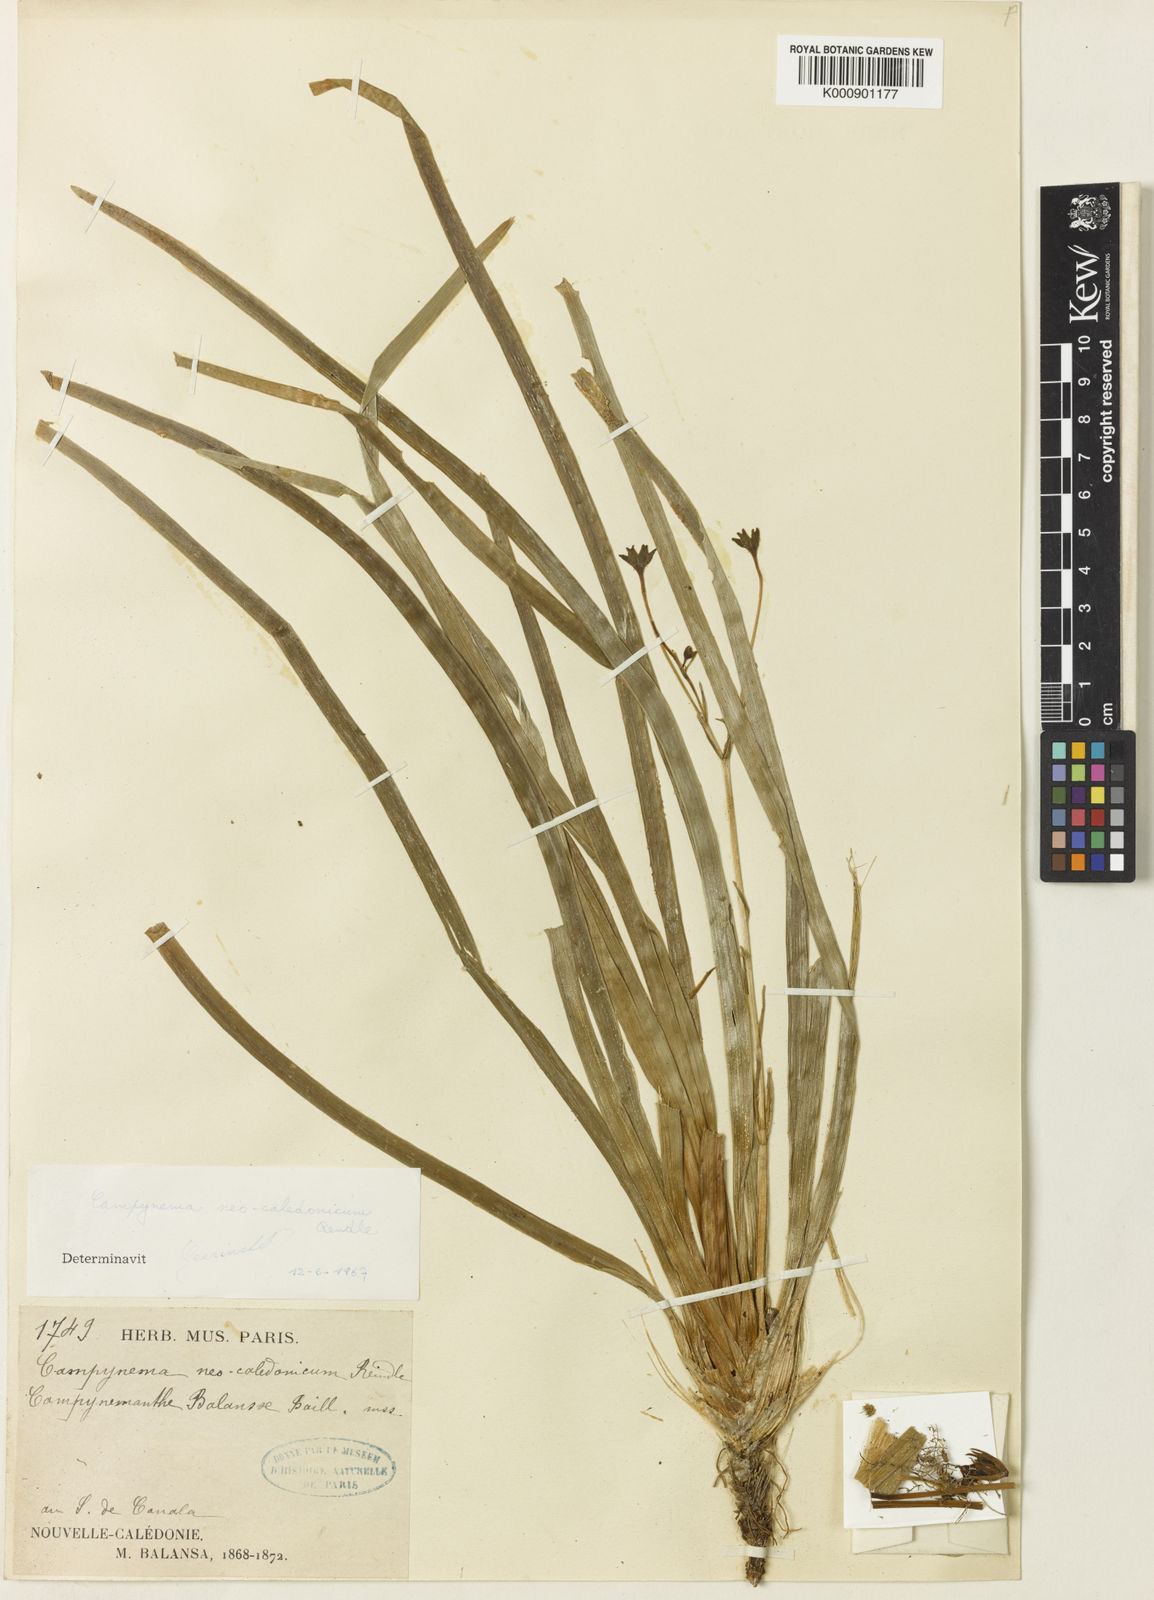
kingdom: Plantae
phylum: Tracheophyta
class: Liliopsida
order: Liliales
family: Campynemataceae
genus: Campynemanthe
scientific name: Campynemanthe neocaledonica
